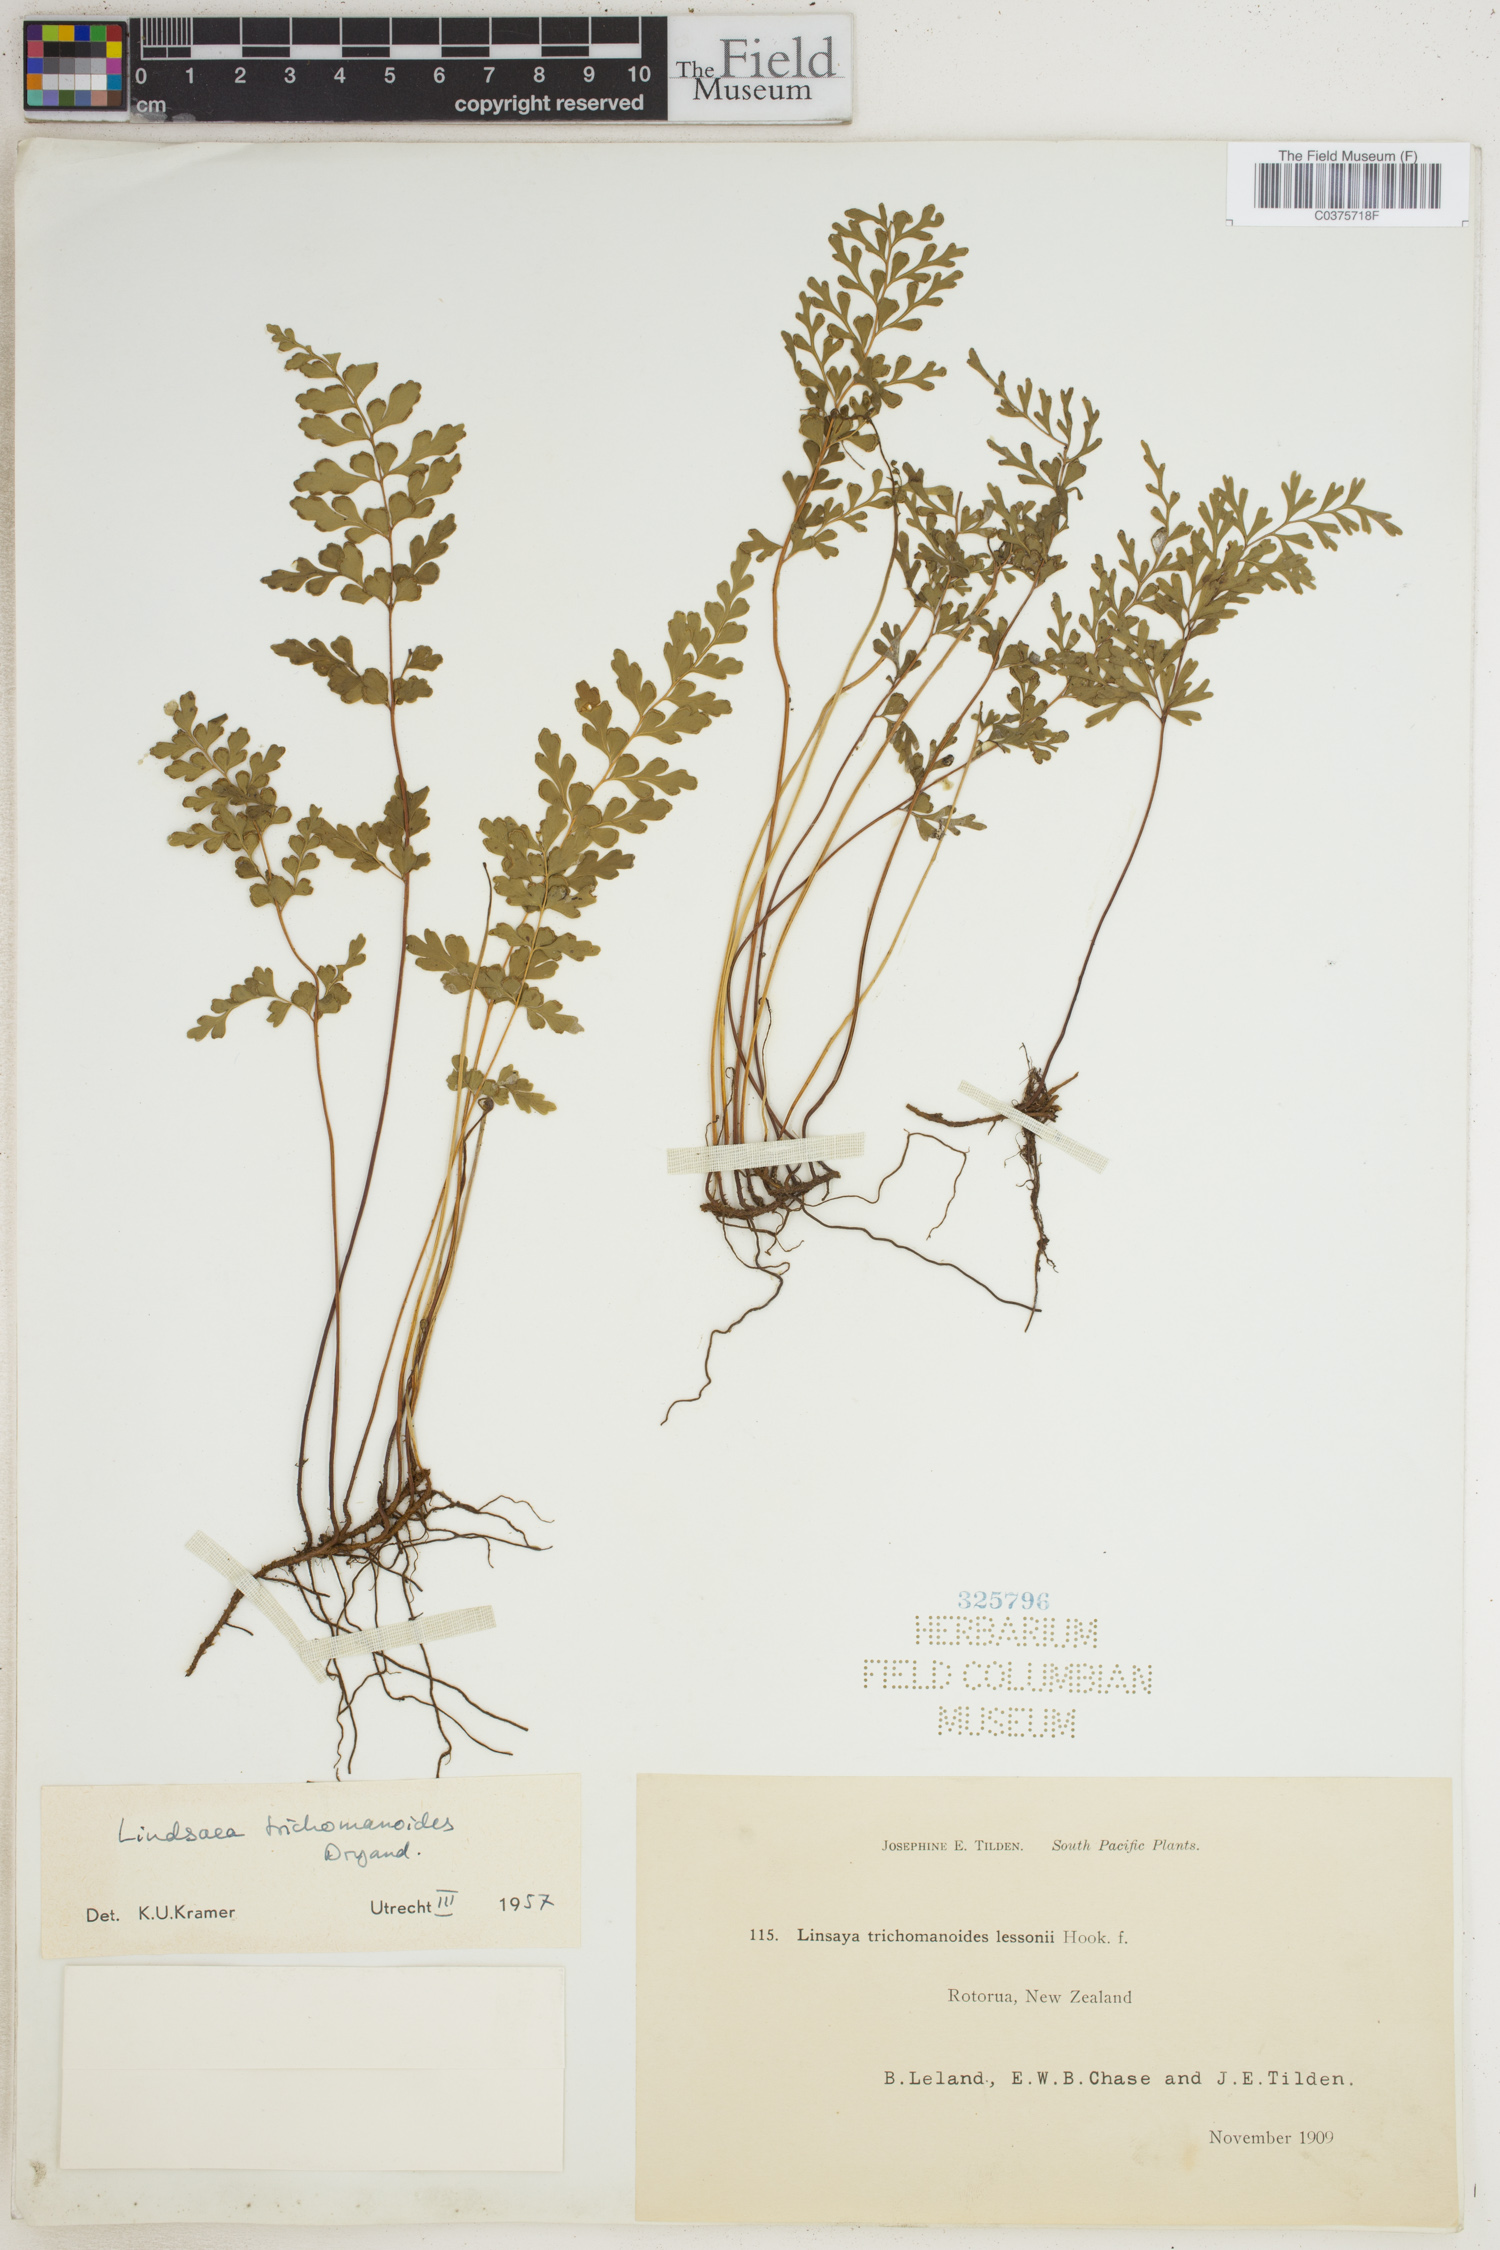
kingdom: Plantae
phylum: Tracheophyta
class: Polypodiopsida
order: Polypodiales
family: Lindsaeaceae
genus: Lindsaea
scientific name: Lindsaea trichomanoides
